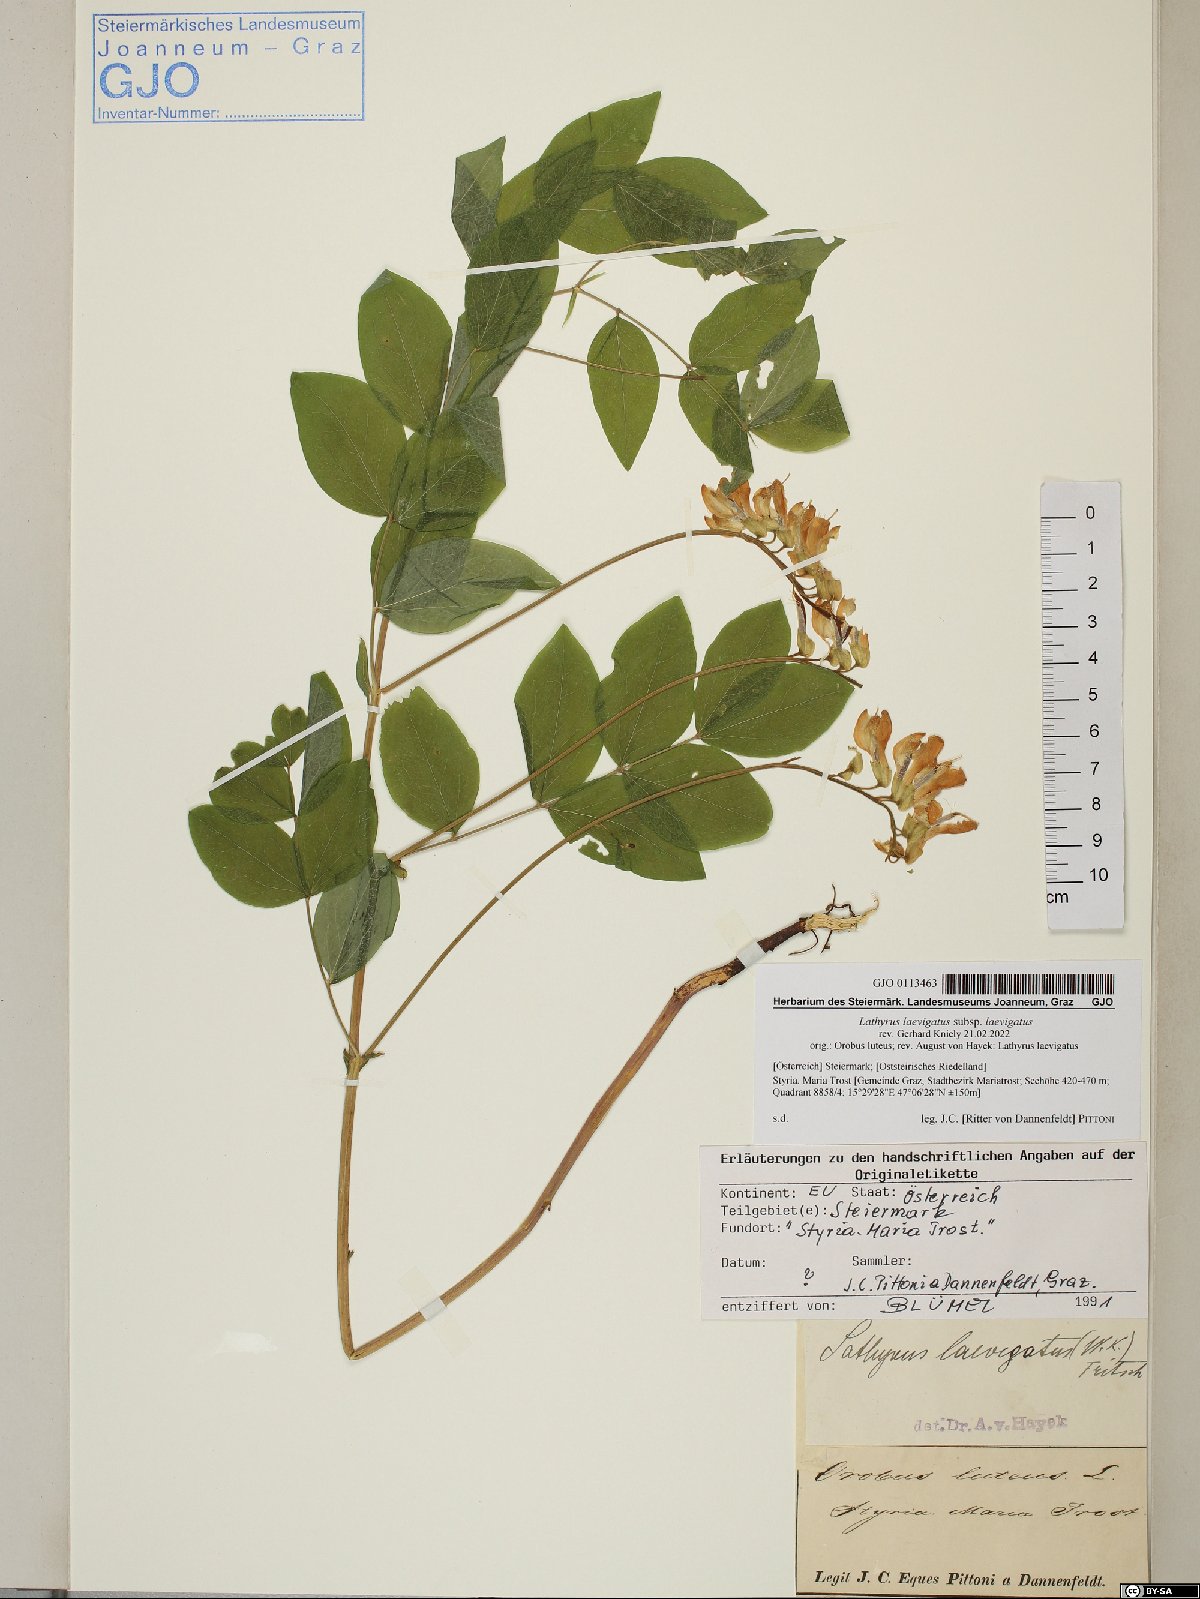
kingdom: Plantae
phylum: Tracheophyta
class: Magnoliopsida
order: Fabales
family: Fabaceae
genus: Lathyrus
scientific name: Lathyrus laevigatus
